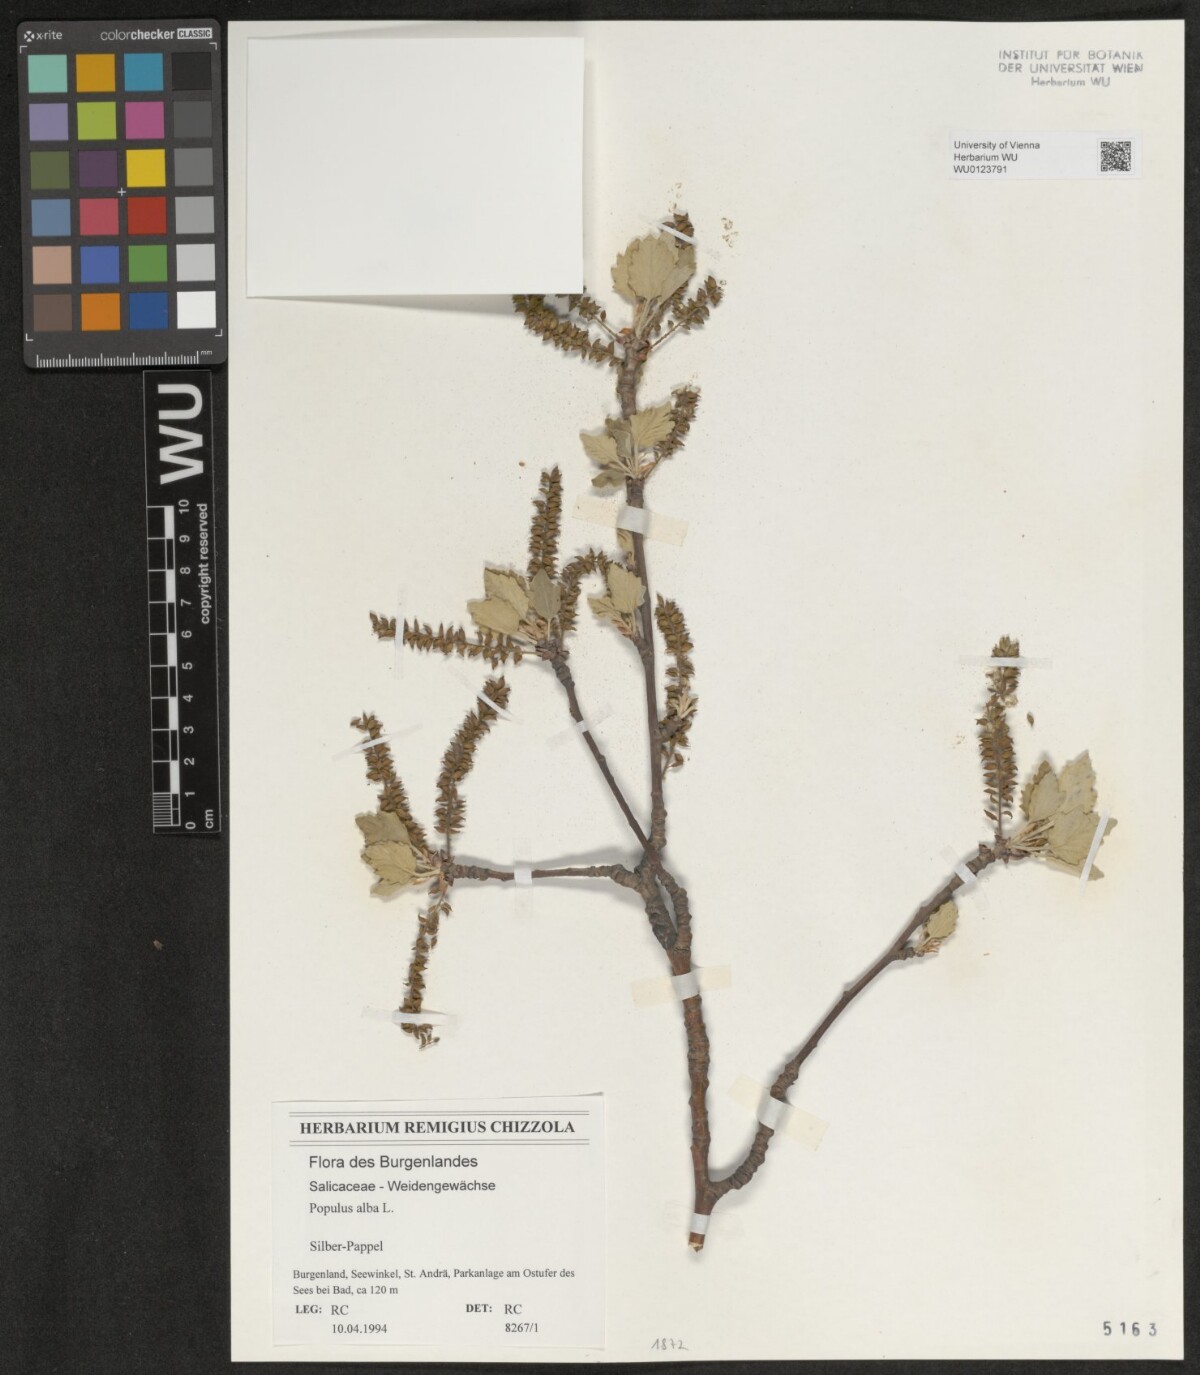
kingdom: Plantae
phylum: Tracheophyta
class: Magnoliopsida
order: Malpighiales
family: Salicaceae
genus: Populus
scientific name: Populus alba
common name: White poplar
